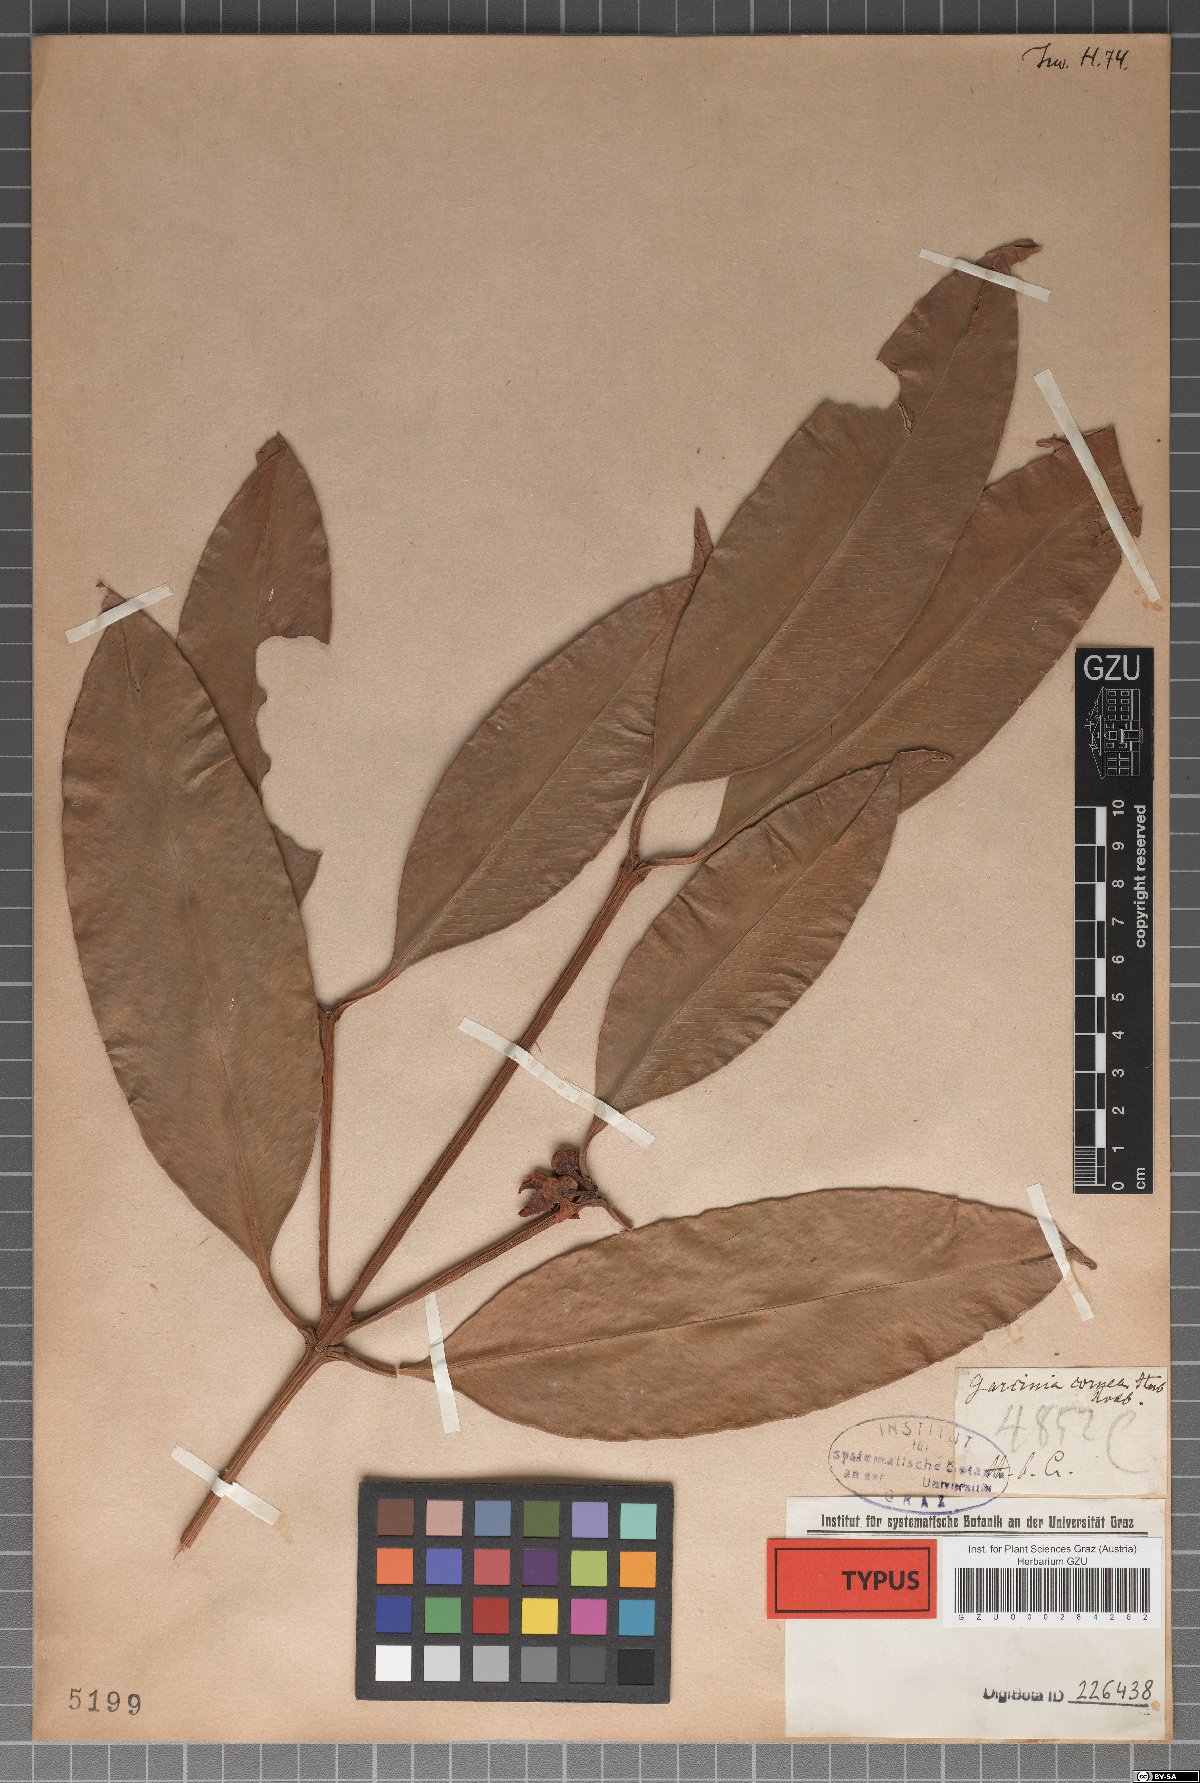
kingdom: Plantae
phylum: Tracheophyta
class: Magnoliopsida
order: Malpighiales
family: Clusiaceae
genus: Garcinia
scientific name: Garcinia cowa
